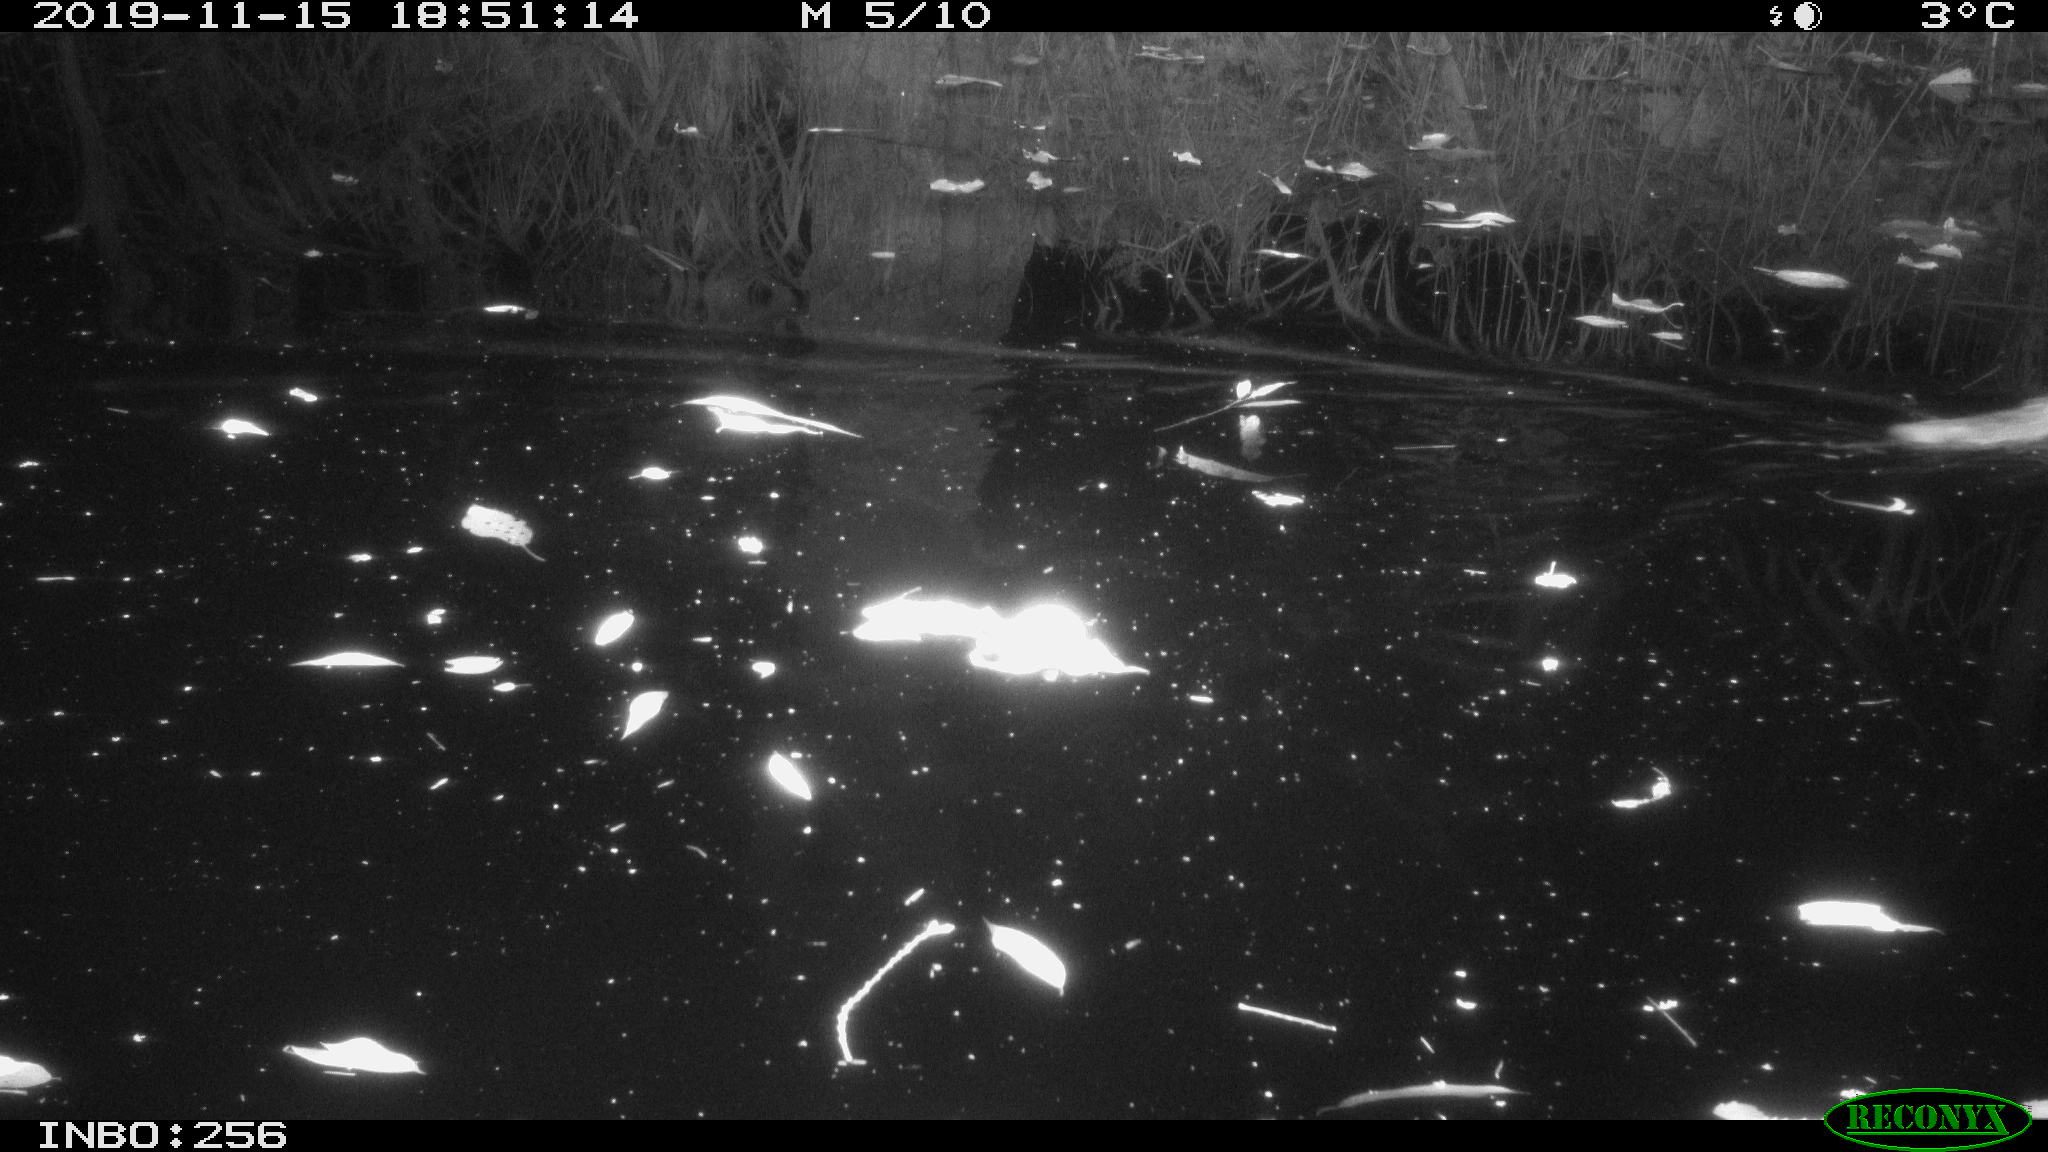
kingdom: Animalia
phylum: Chordata
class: Mammalia
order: Rodentia
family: Muridae
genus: Rattus
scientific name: Rattus norvegicus
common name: Brown rat
